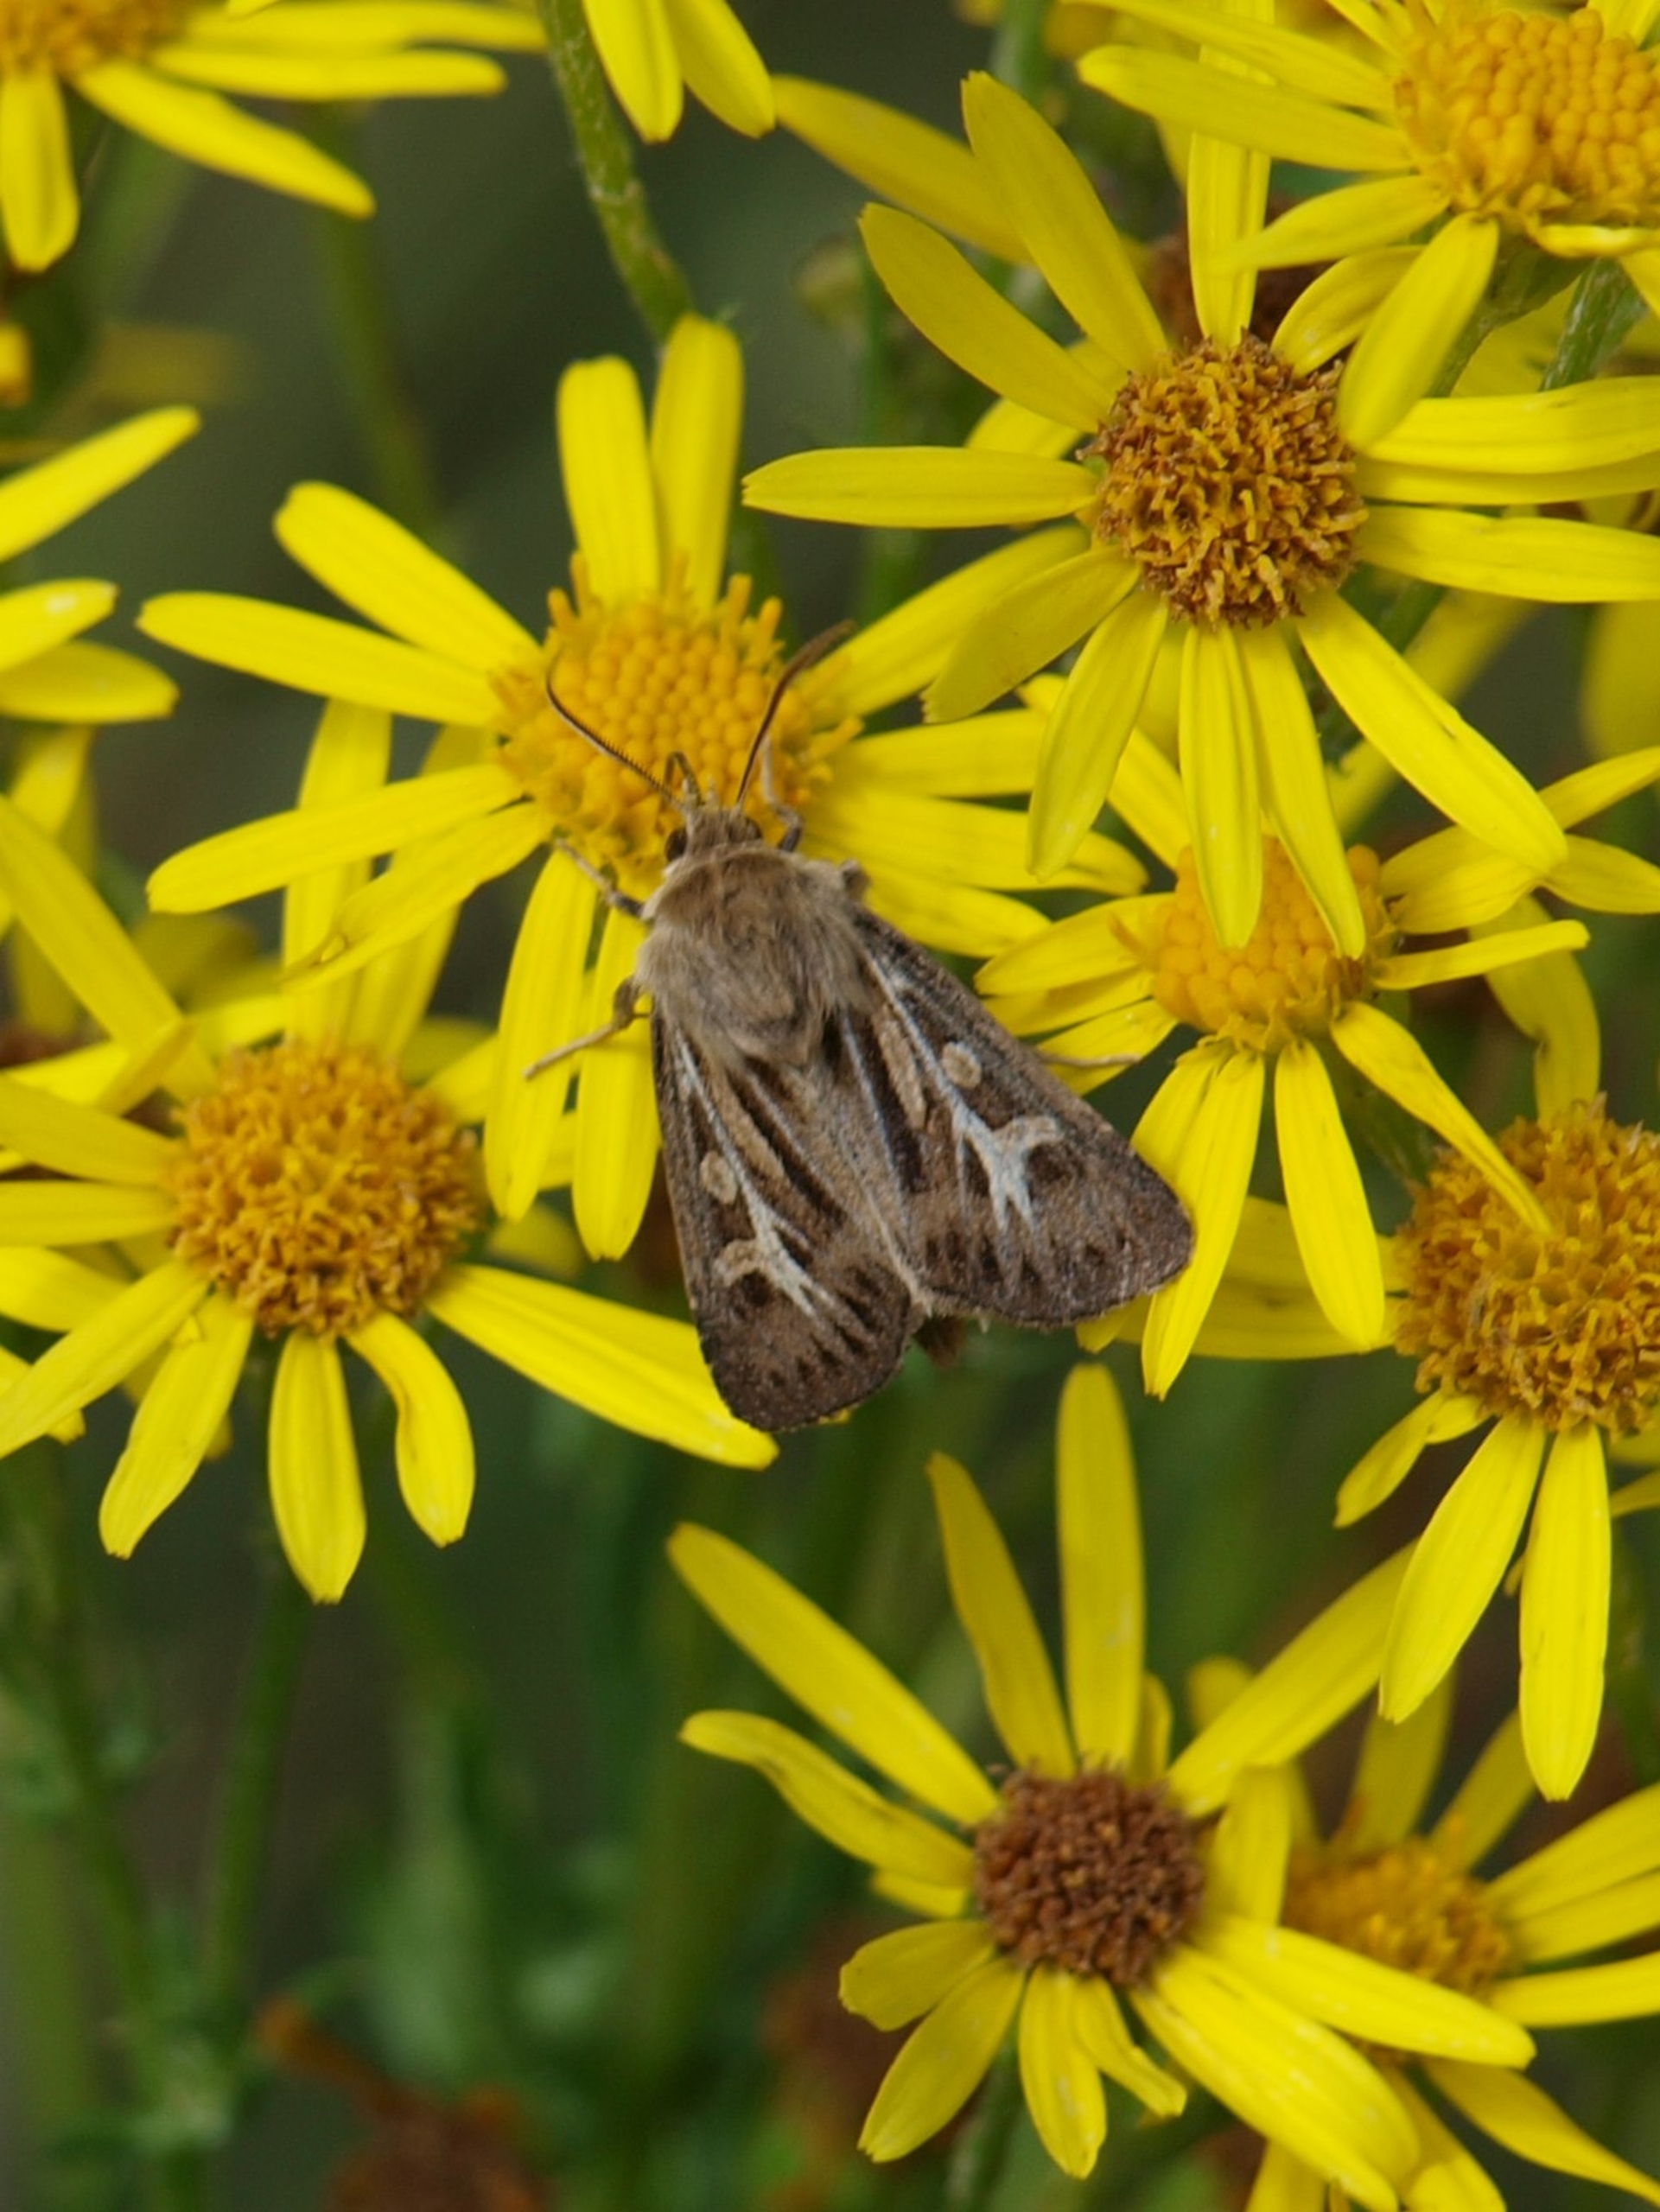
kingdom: Animalia
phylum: Arthropoda
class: Insecta
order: Lepidoptera
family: Noctuidae
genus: Cerapteryx
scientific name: Cerapteryx graminis
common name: Mosebunkeugle
